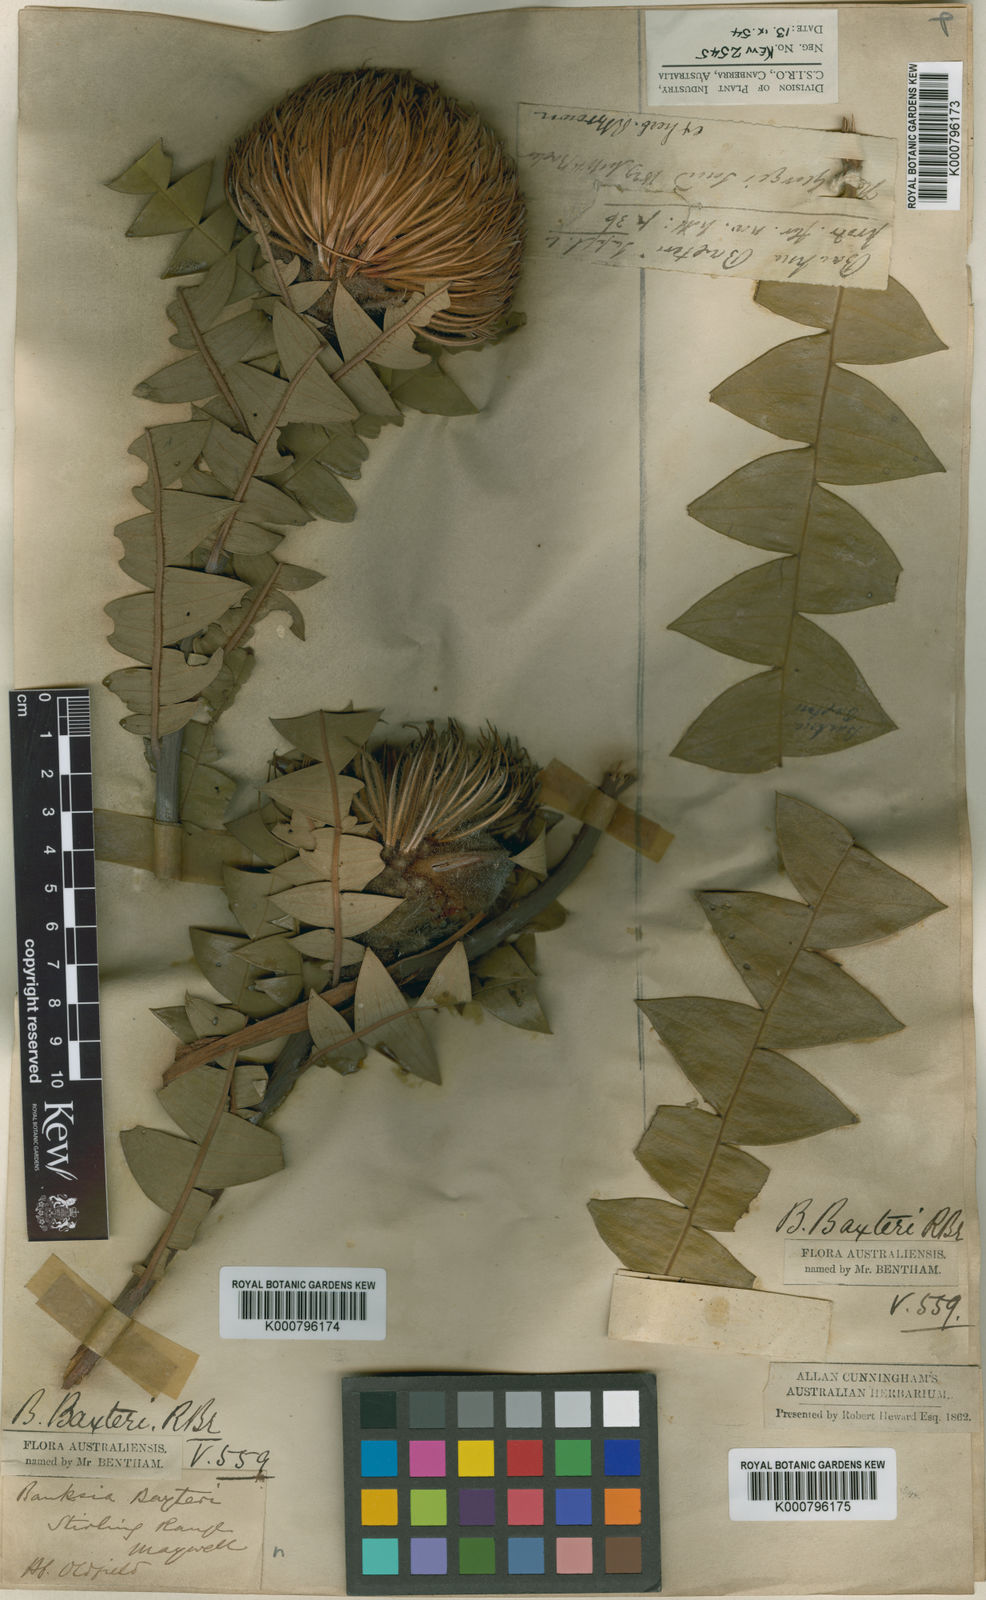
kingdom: Plantae
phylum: Tracheophyta
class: Magnoliopsida
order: Proteales
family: Proteaceae
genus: Banksia
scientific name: Banksia speciosa
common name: Showy banksia
